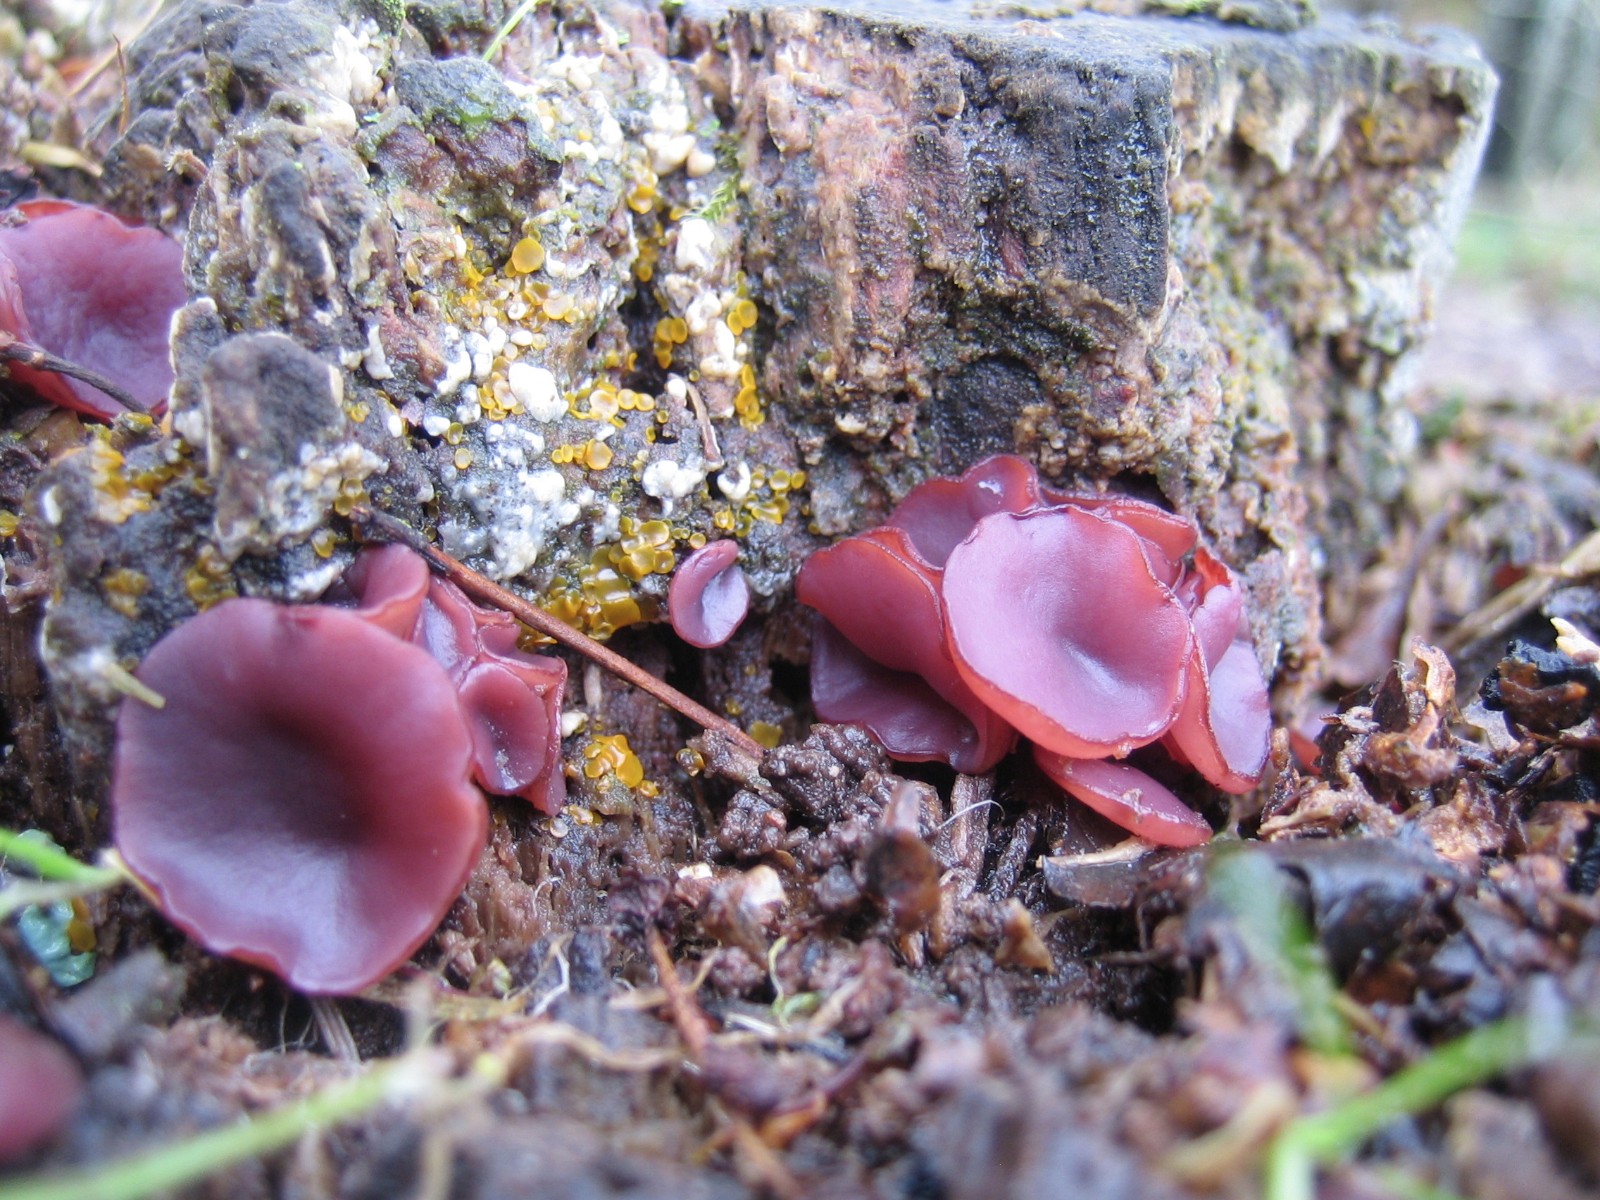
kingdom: Fungi
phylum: Ascomycota
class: Leotiomycetes
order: Helotiales
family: Gelatinodiscaceae
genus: Ascocoryne
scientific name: Ascocoryne cylichnium
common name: stor sejskive
